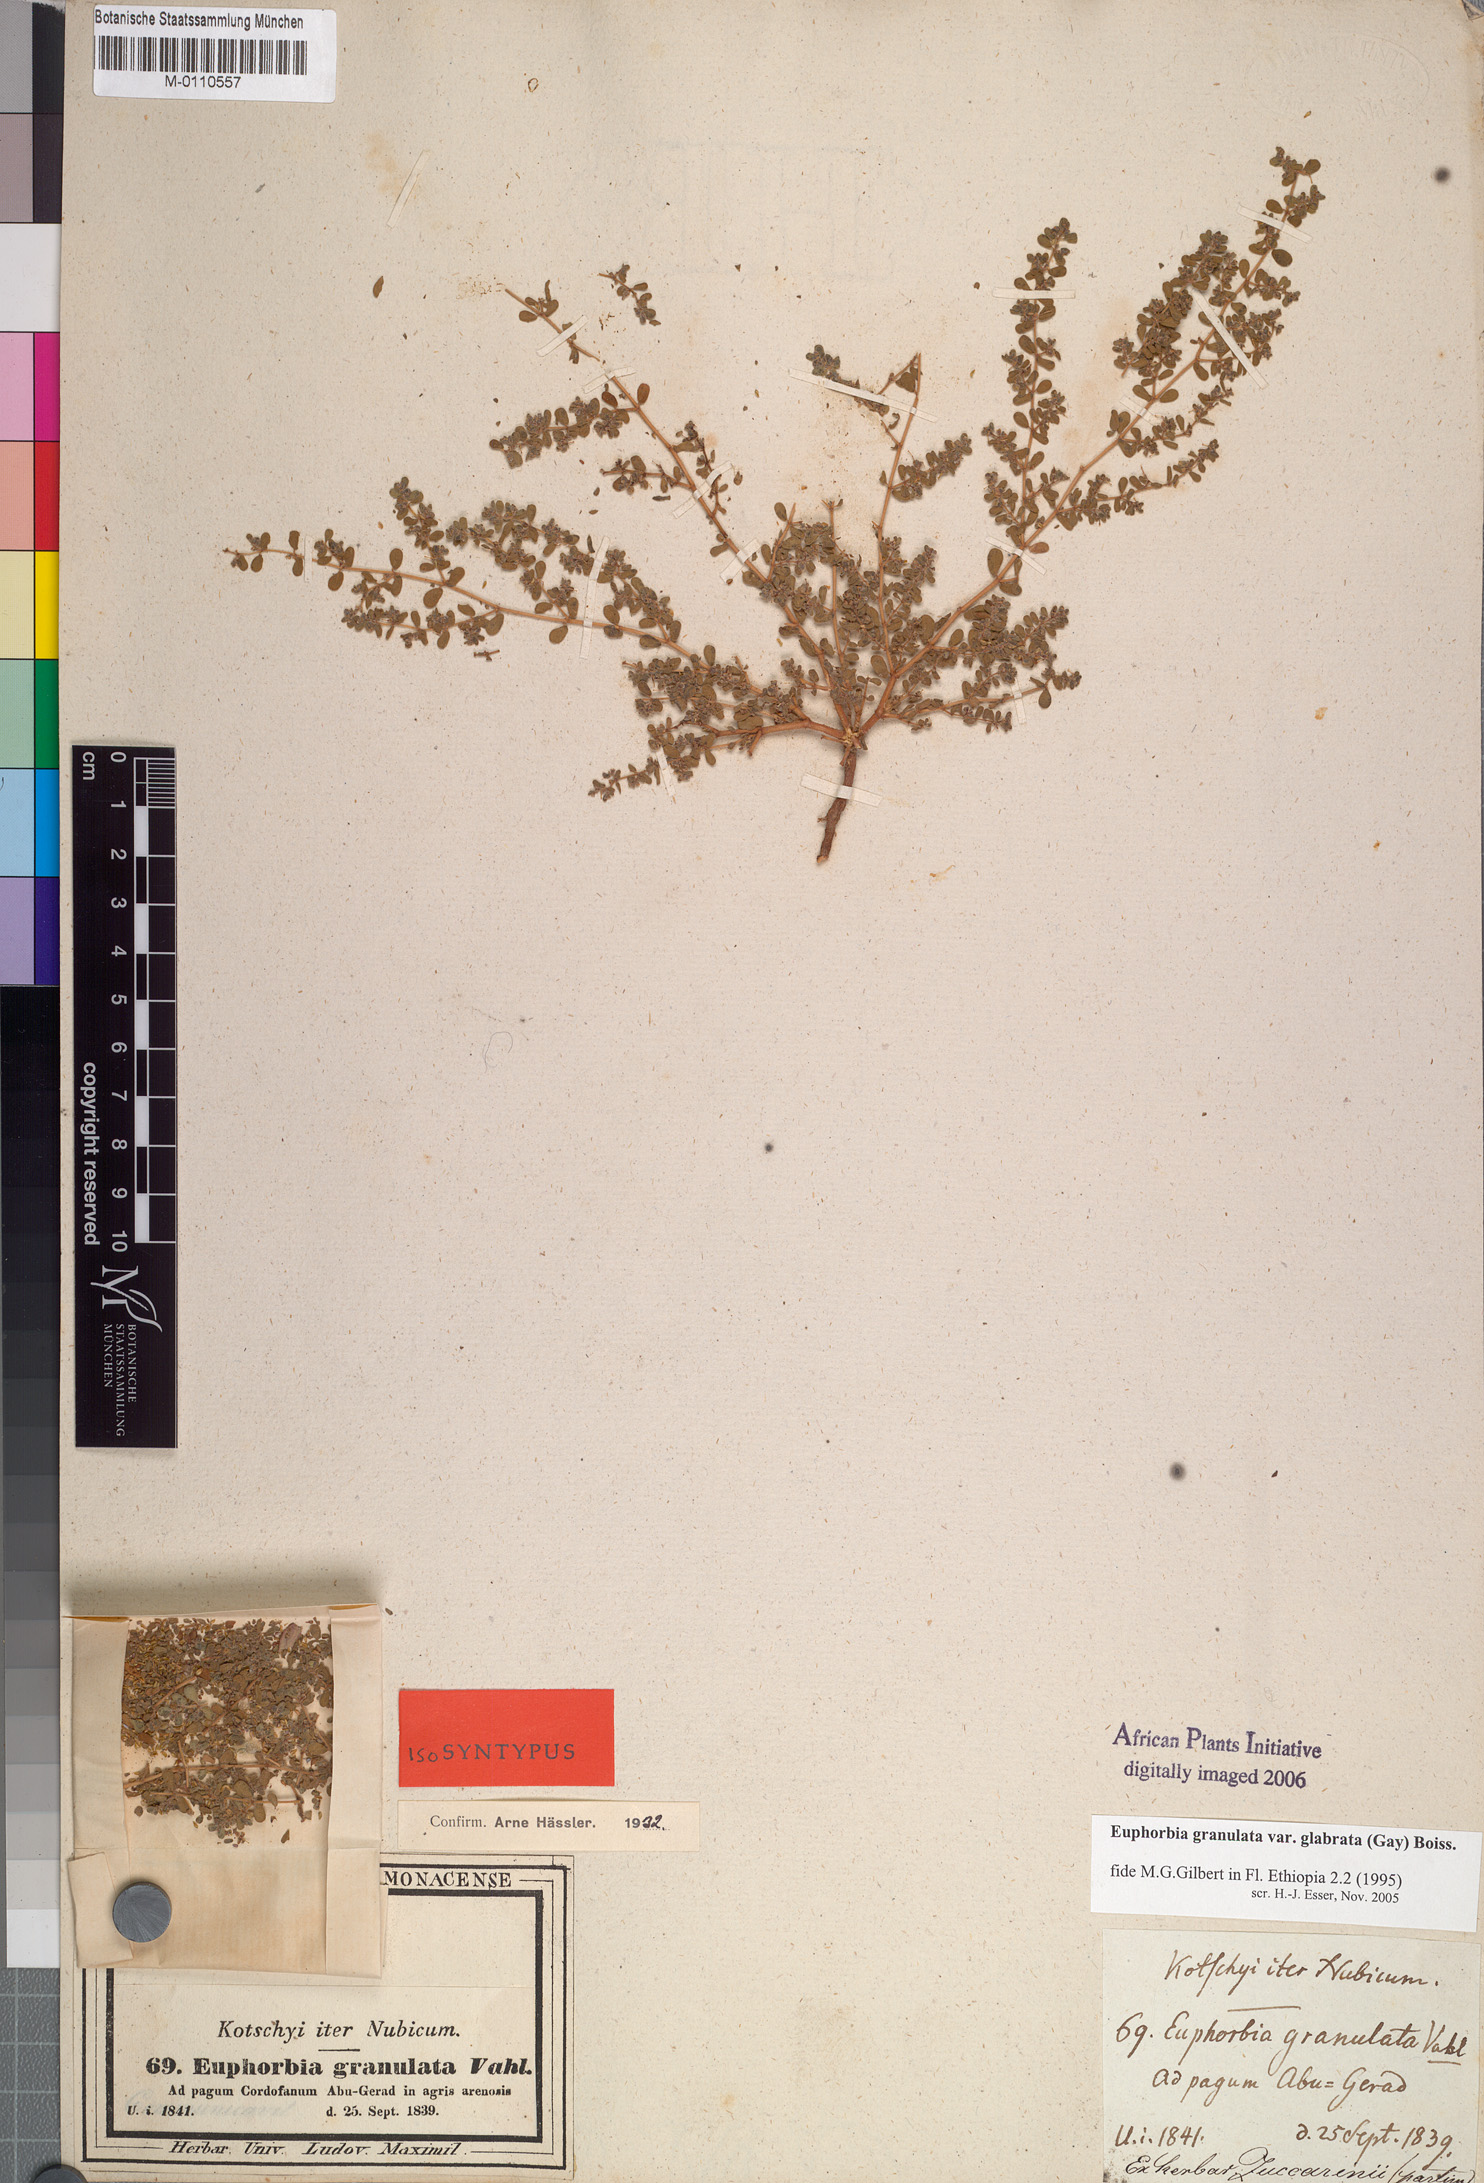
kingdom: Plantae
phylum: Tracheophyta
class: Magnoliopsida
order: Malpighiales
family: Euphorbiaceae
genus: Euphorbia
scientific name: Euphorbia granulata
